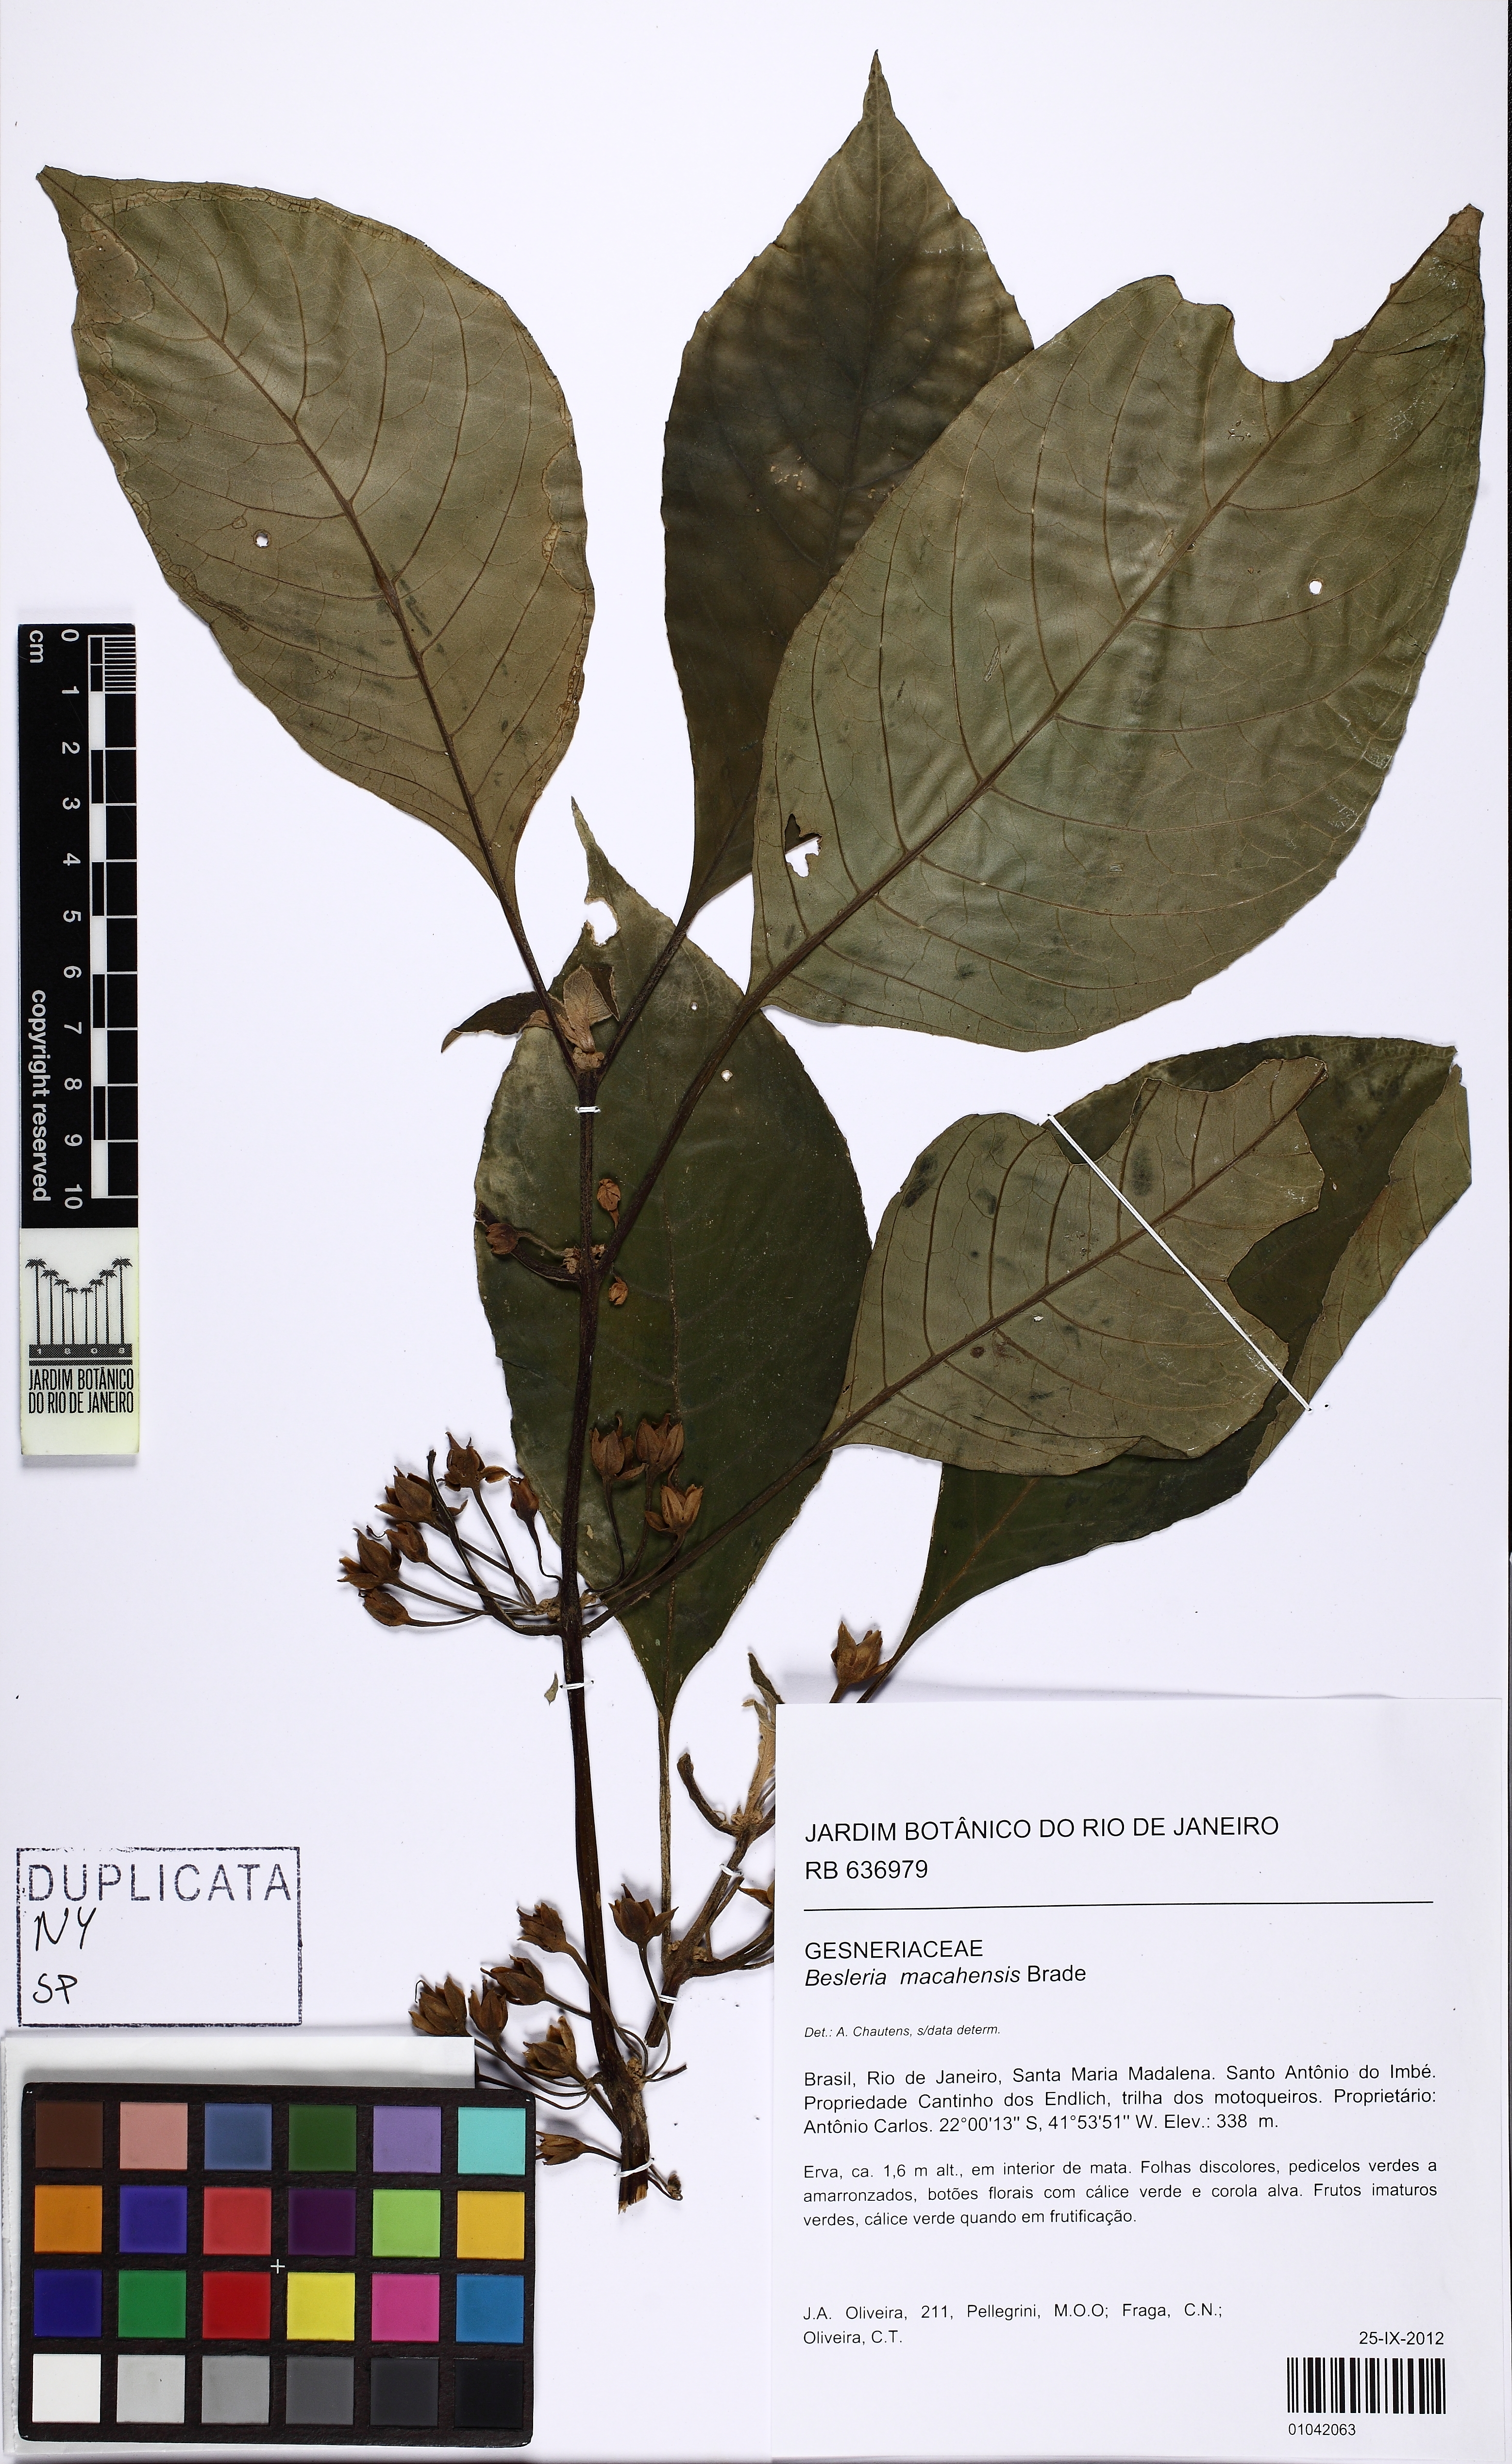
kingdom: Plantae
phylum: Tracheophyta
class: Magnoliopsida
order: Lamiales
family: Gesneriaceae
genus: Besleria
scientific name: Besleria macahensis
